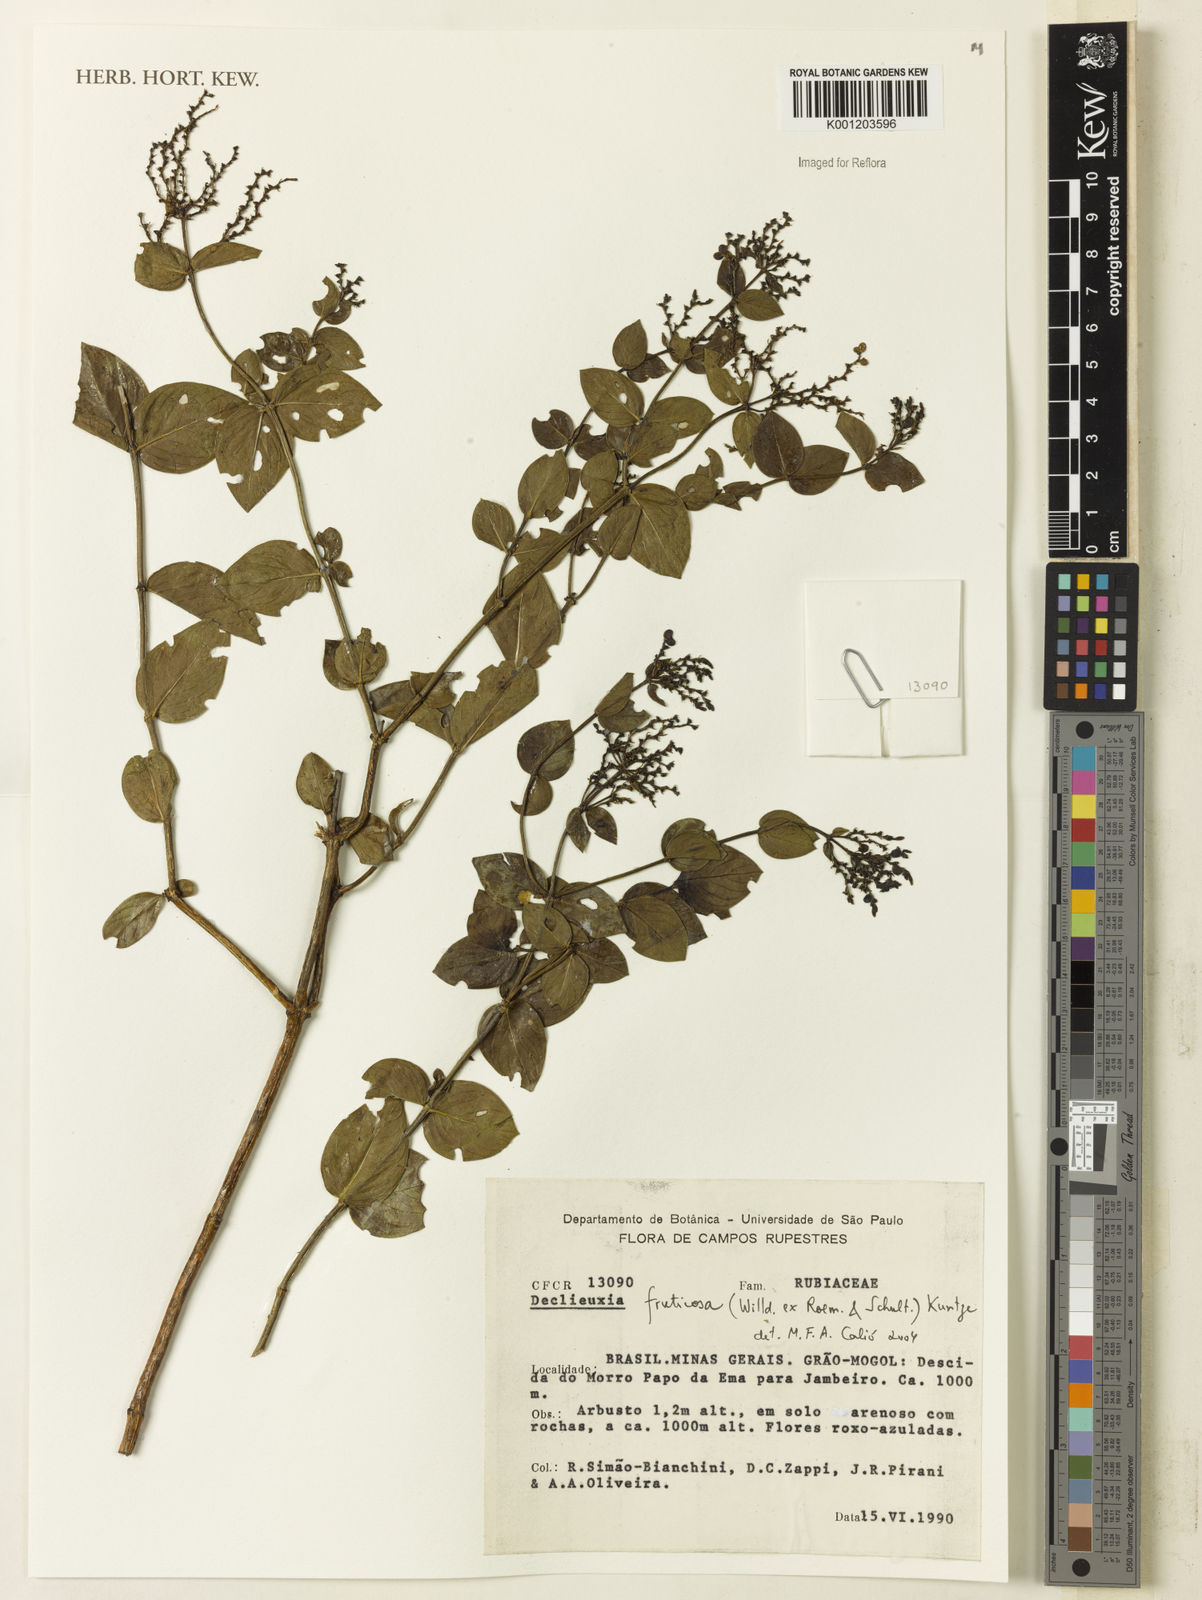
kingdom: Plantae
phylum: Tracheophyta
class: Magnoliopsida
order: Gentianales
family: Rubiaceae
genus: Declieuxia
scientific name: Declieuxia fruticosa
